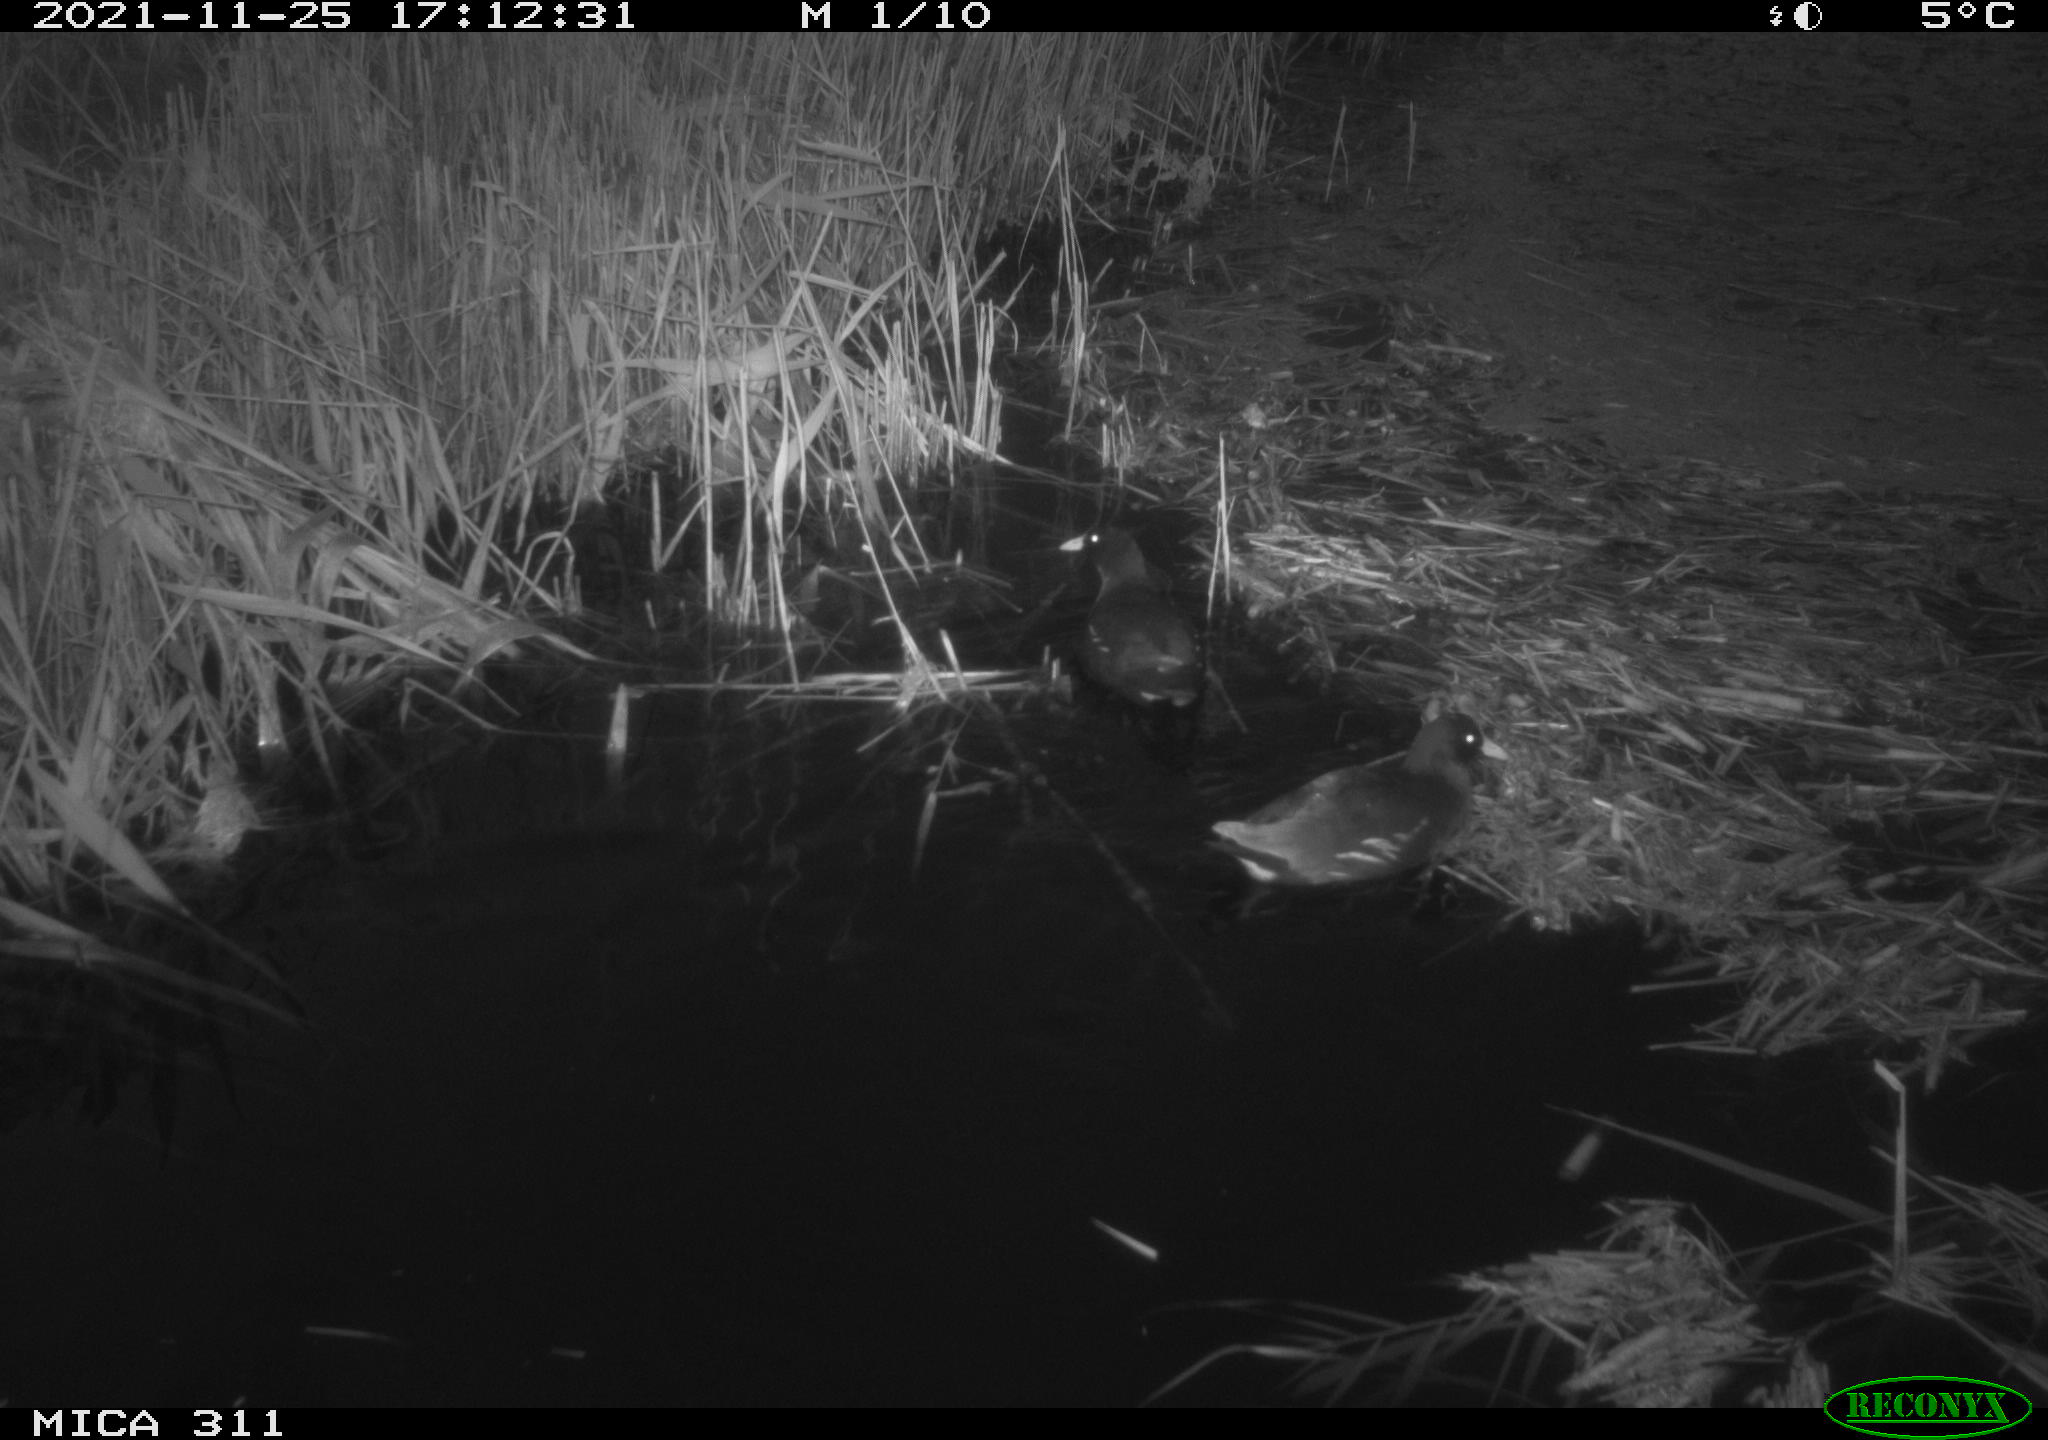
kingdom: Animalia
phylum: Chordata
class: Aves
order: Gruiformes
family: Rallidae
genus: Gallinula
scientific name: Gallinula chloropus
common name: Common moorhen
